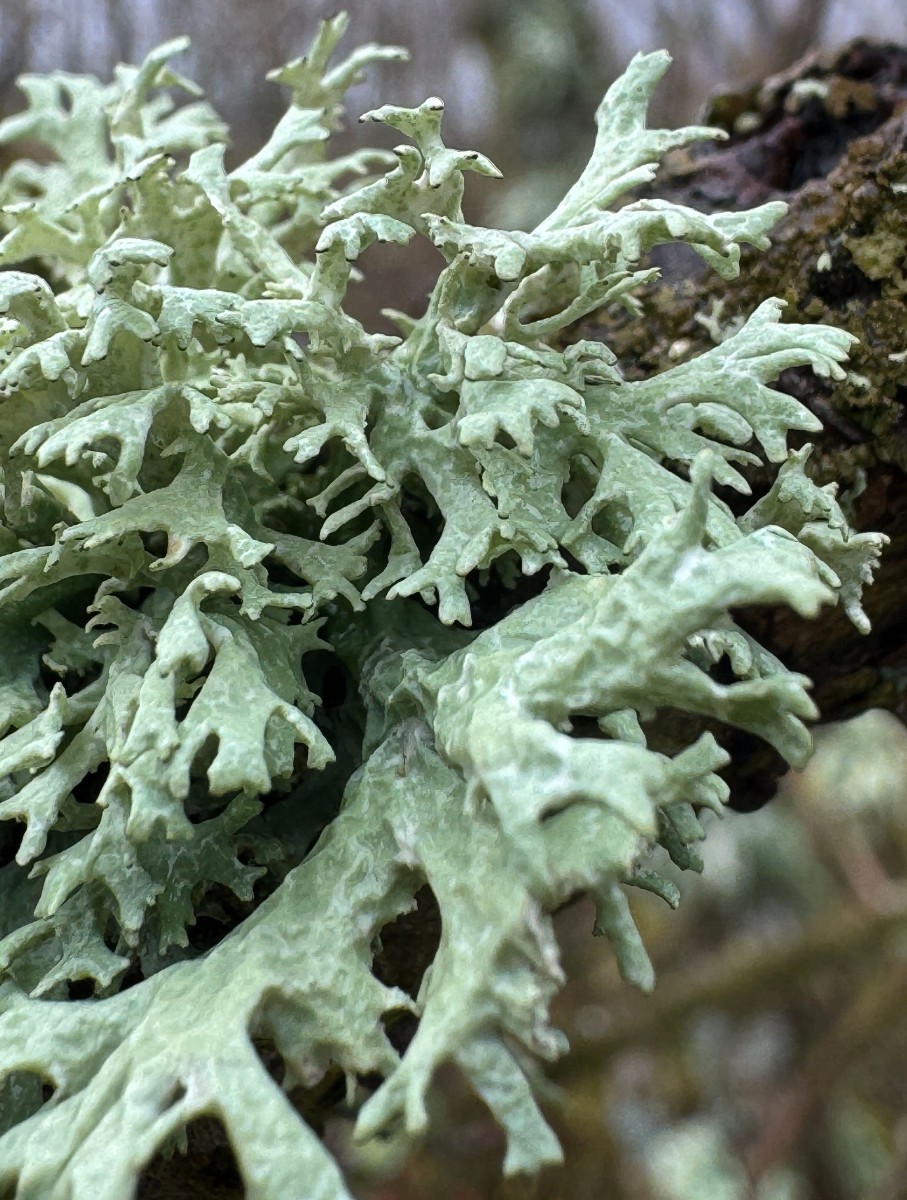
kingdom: Fungi
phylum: Ascomycota
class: Lecanoromycetes
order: Lecanorales
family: Parmeliaceae
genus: Evernia
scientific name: Evernia prunastri
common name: almindelig slåenlav
